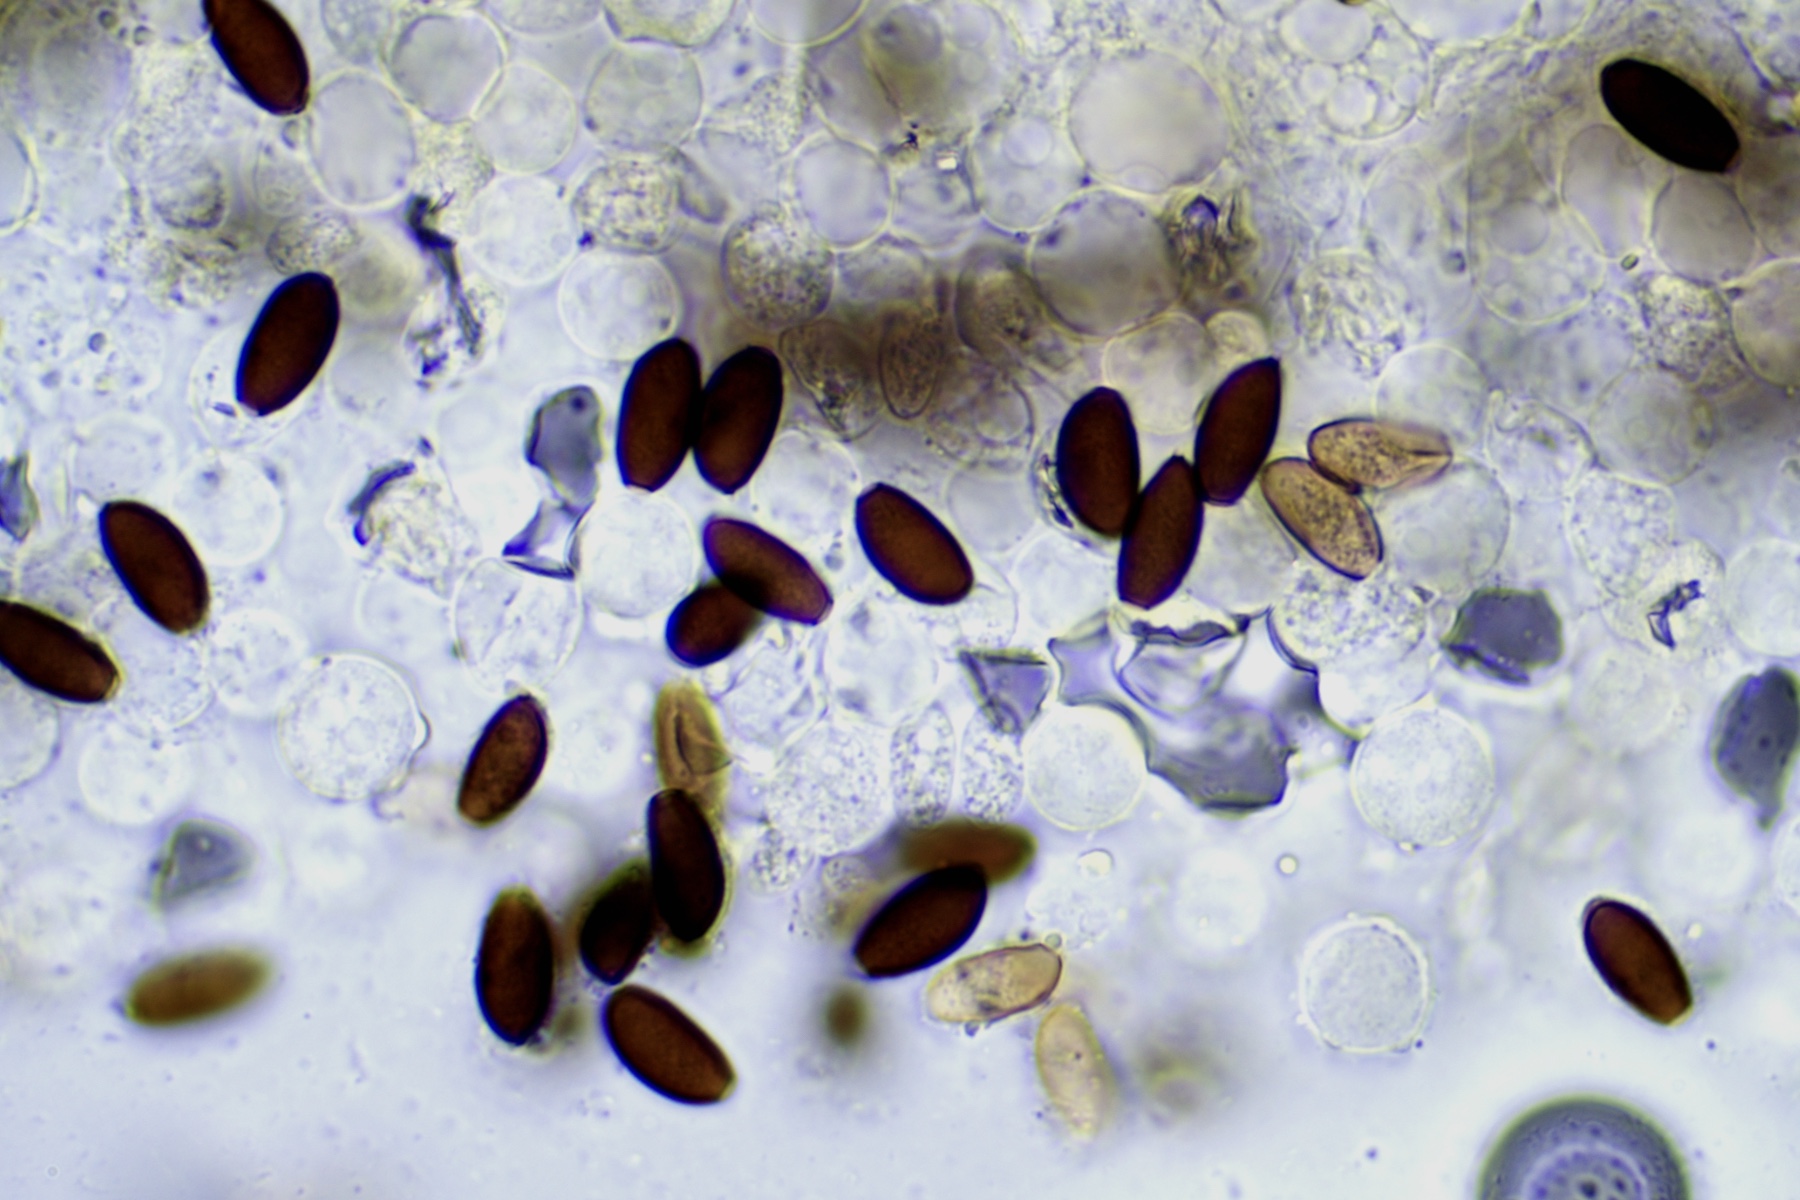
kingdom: Fungi
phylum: Basidiomycota
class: Agaricomycetes
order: Agaricales
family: Psathyrellaceae
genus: Psathyrella
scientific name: Psathyrella pseudogracilis
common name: slank mørkhat
